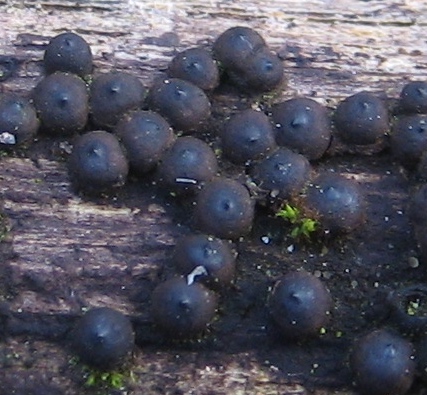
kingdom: Fungi
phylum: Ascomycota
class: Sordariomycetes
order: Xylariales
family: Xylariaceae
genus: Rosellinia
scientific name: Rosellinia
